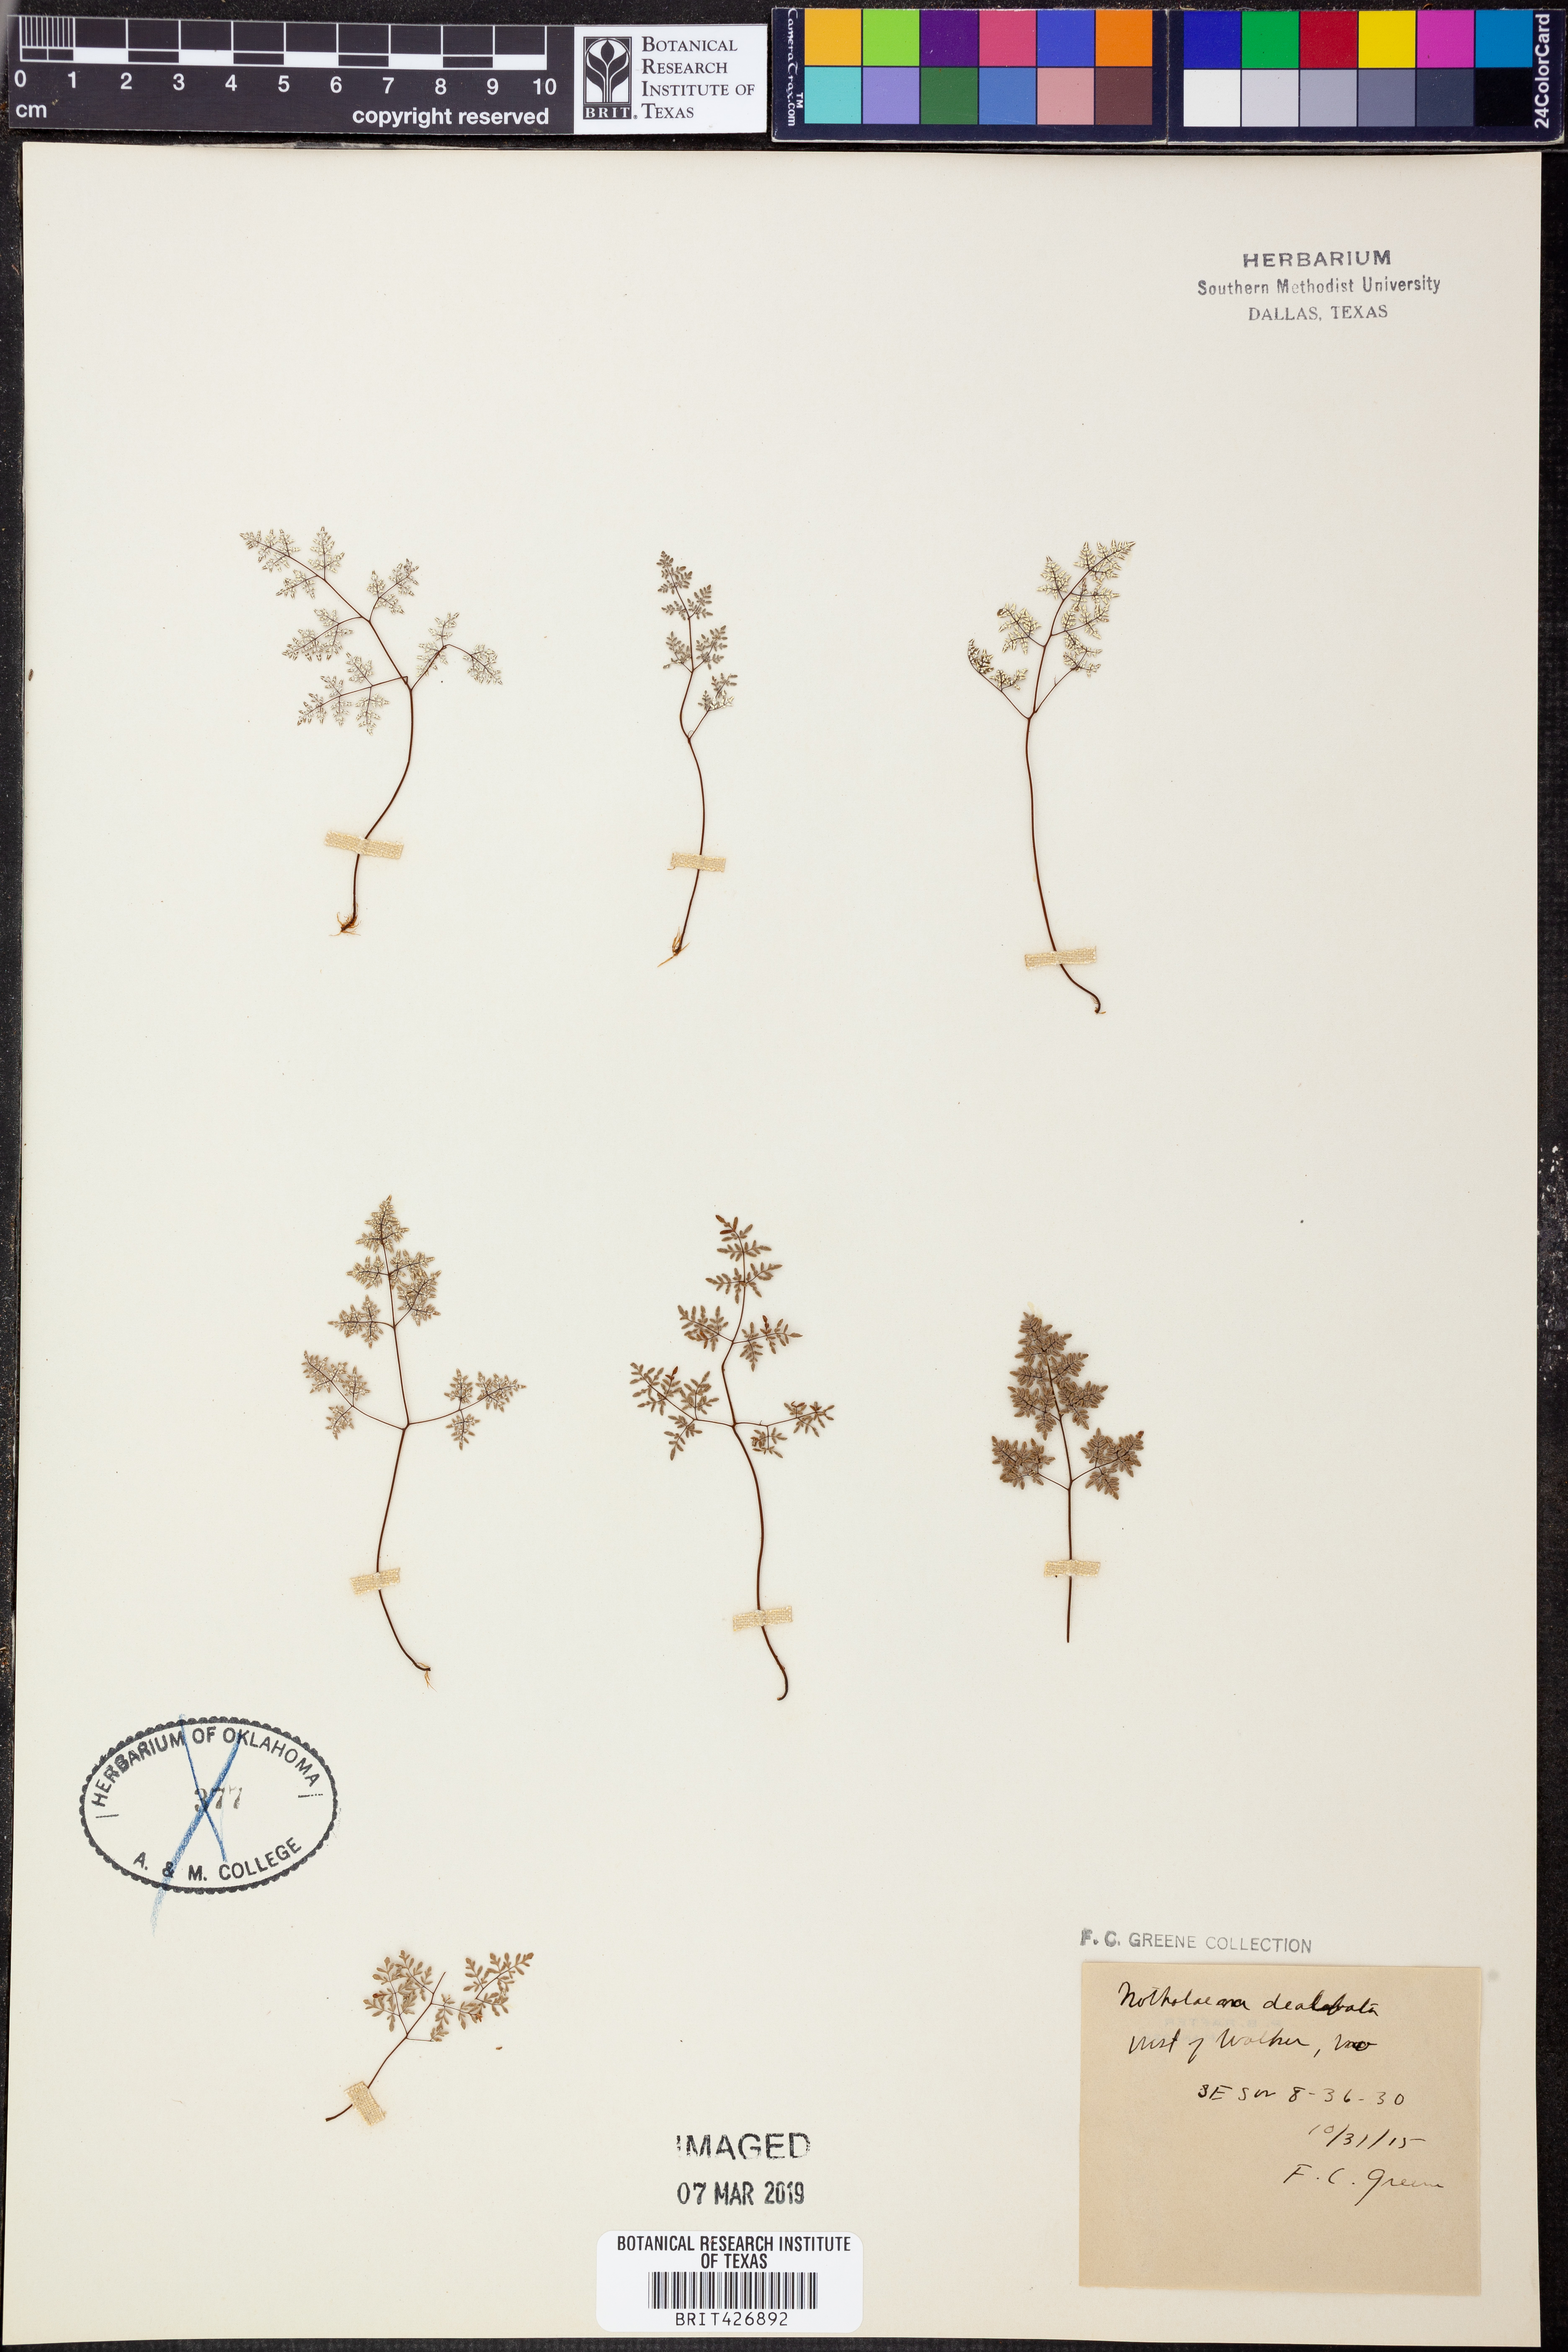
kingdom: Plantae
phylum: Tracheophyta
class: Polypodiopsida
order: Polypodiales
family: Pteridaceae
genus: Argyrochosma
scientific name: Argyrochosma dealbata
